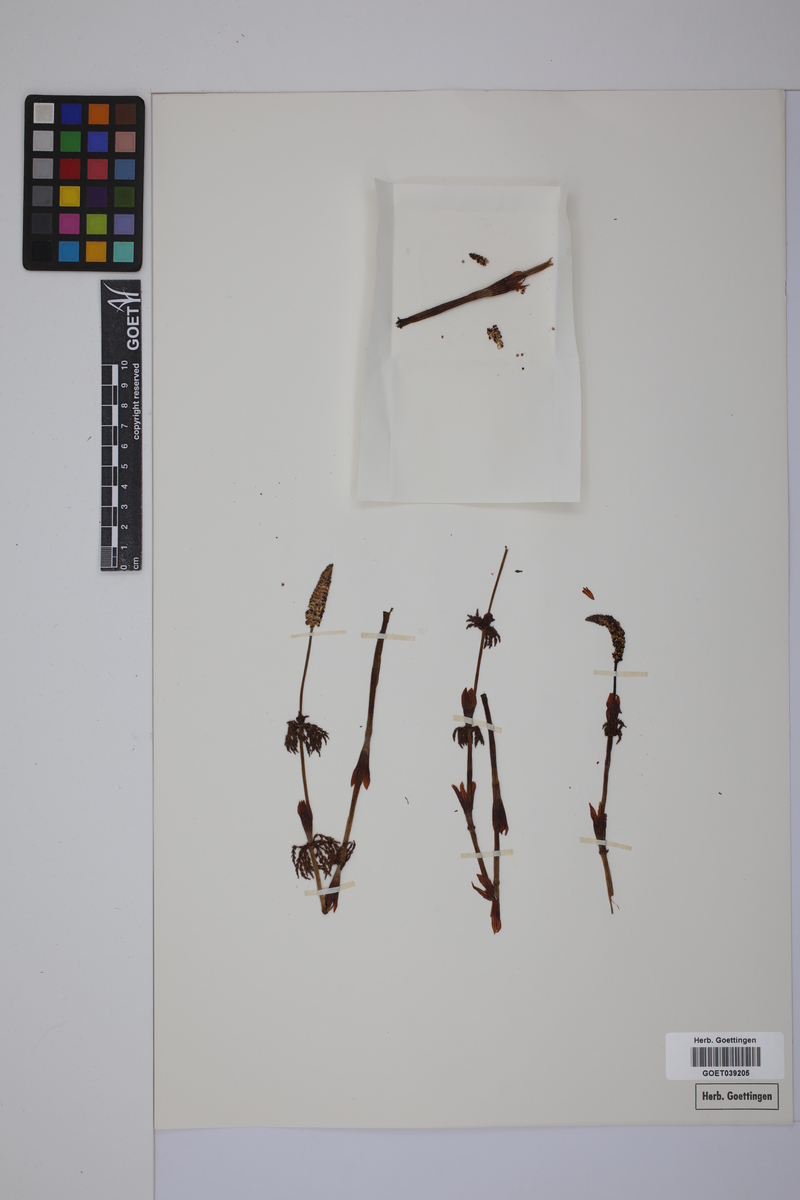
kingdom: Plantae
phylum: Tracheophyta
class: Polypodiopsida
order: Equisetales
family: Equisetaceae
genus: Equisetum
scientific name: Equisetum sylvaticum
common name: Wood horsetail
